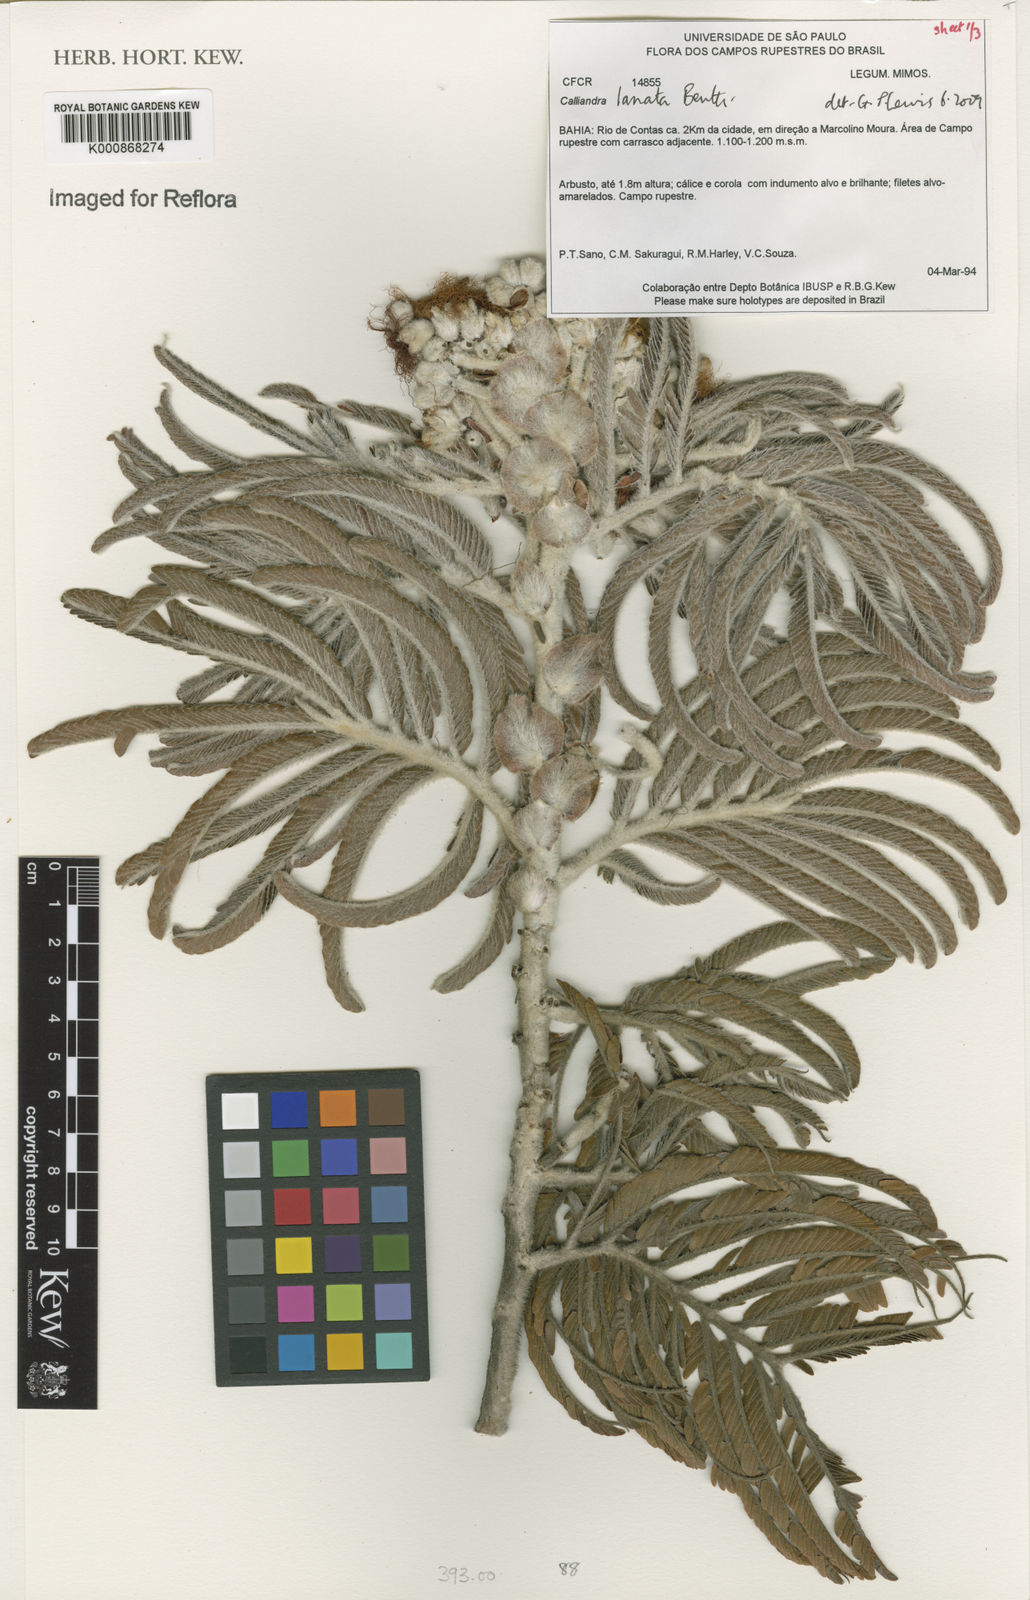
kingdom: Plantae
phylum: Tracheophyta
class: Magnoliopsida
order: Fabales
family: Fabaceae
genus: Calliandra
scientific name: Calliandra lanata
